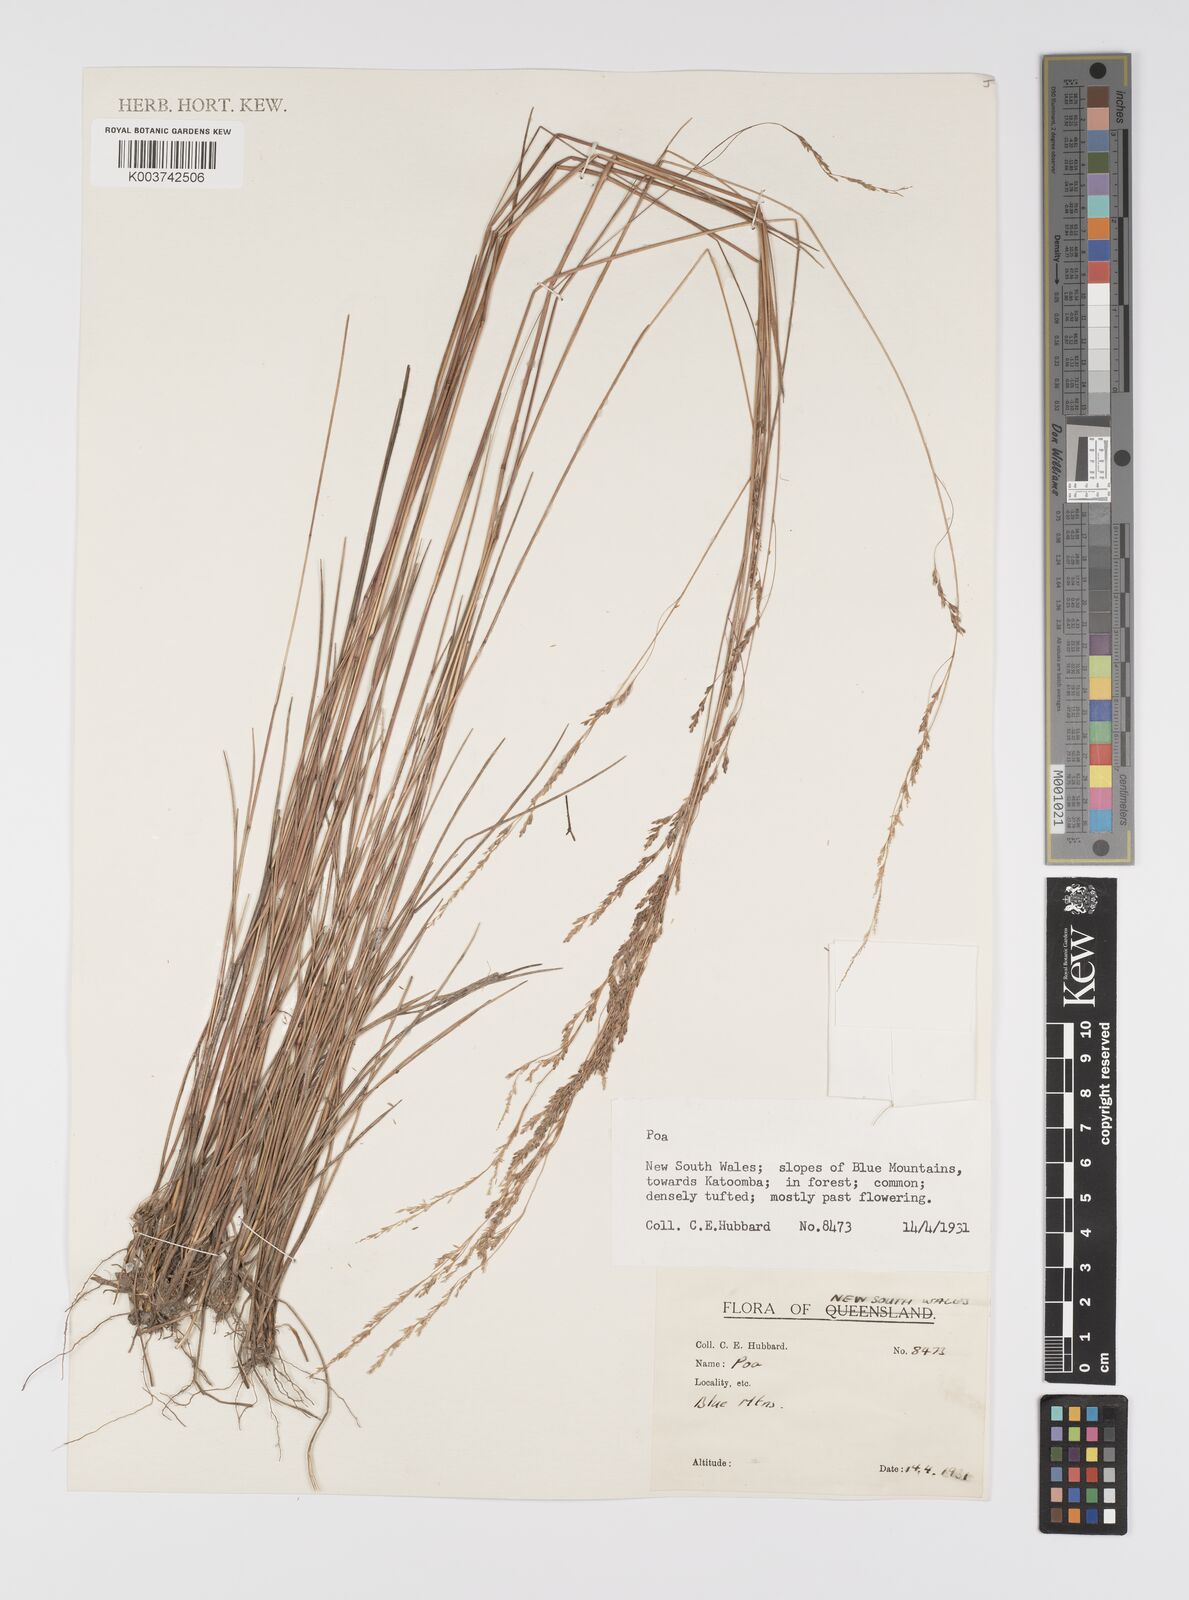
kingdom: Plantae
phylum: Tracheophyta
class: Liliopsida
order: Poales
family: Poaceae
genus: Poa
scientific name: Poa
